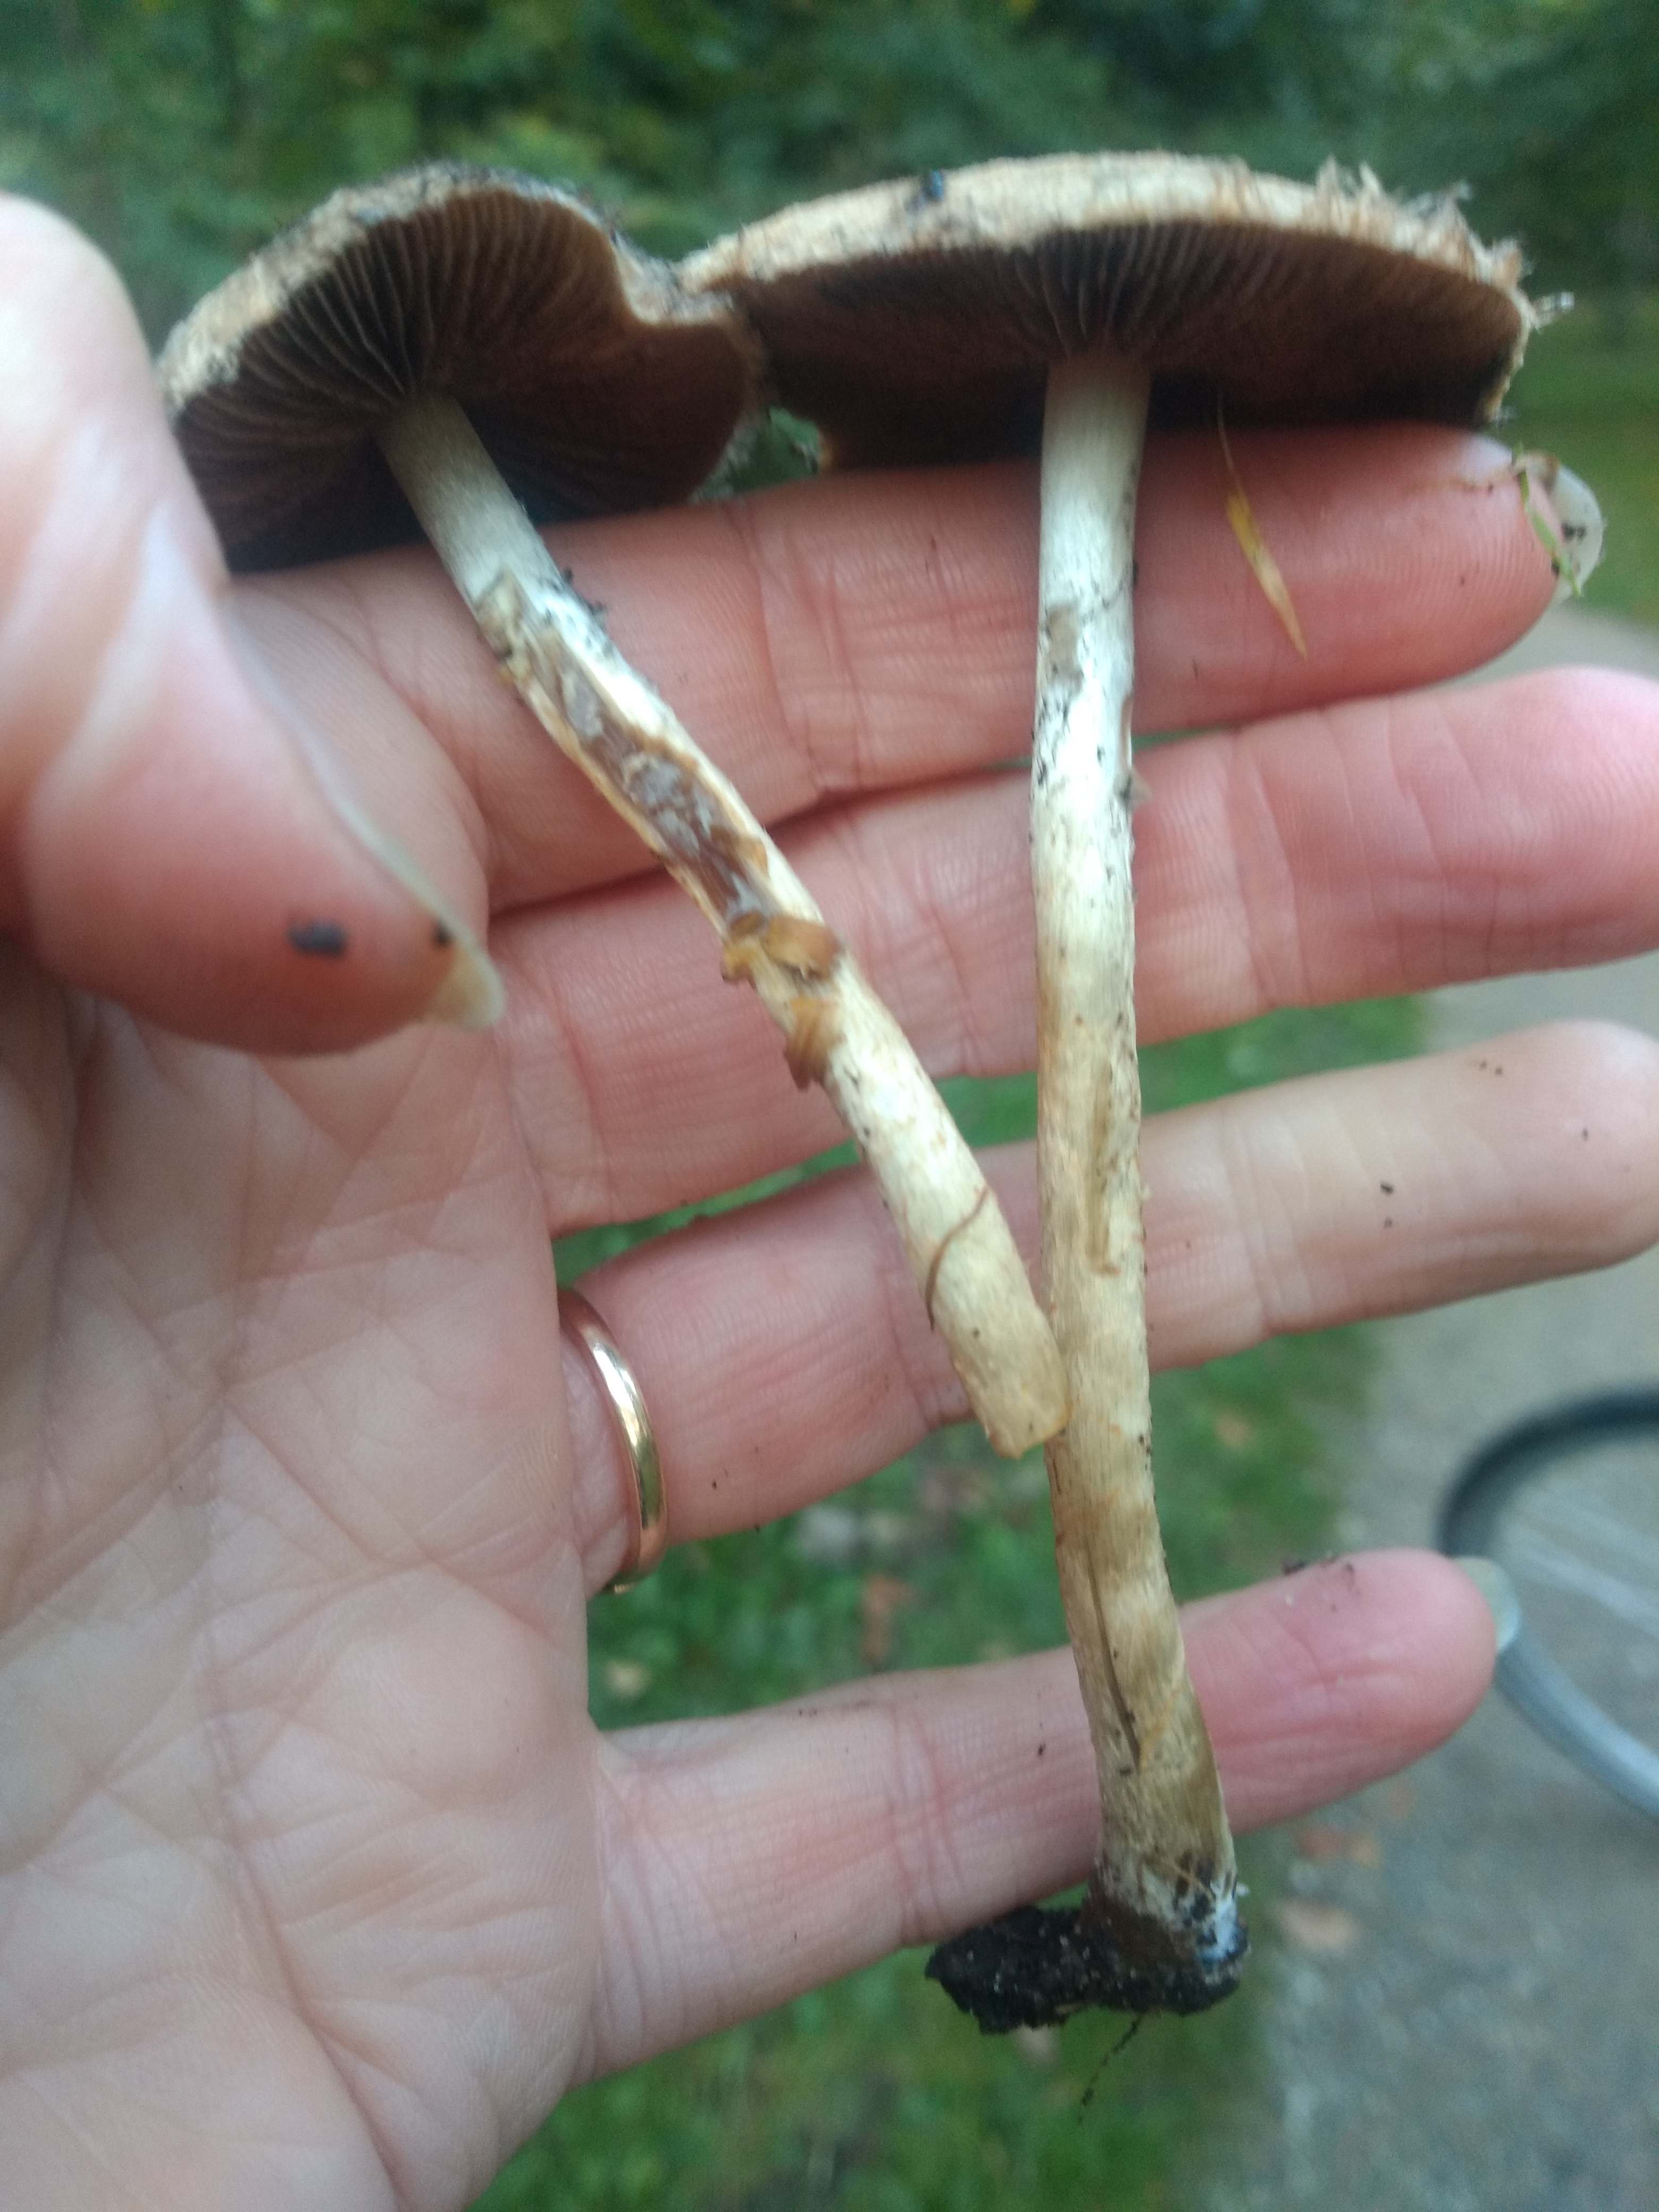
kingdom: Fungi
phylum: Basidiomycota
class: Agaricomycetes
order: Agaricales
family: Psathyrellaceae
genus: Lacrymaria
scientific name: Lacrymaria lacrymabunda
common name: grædende mørkhat
